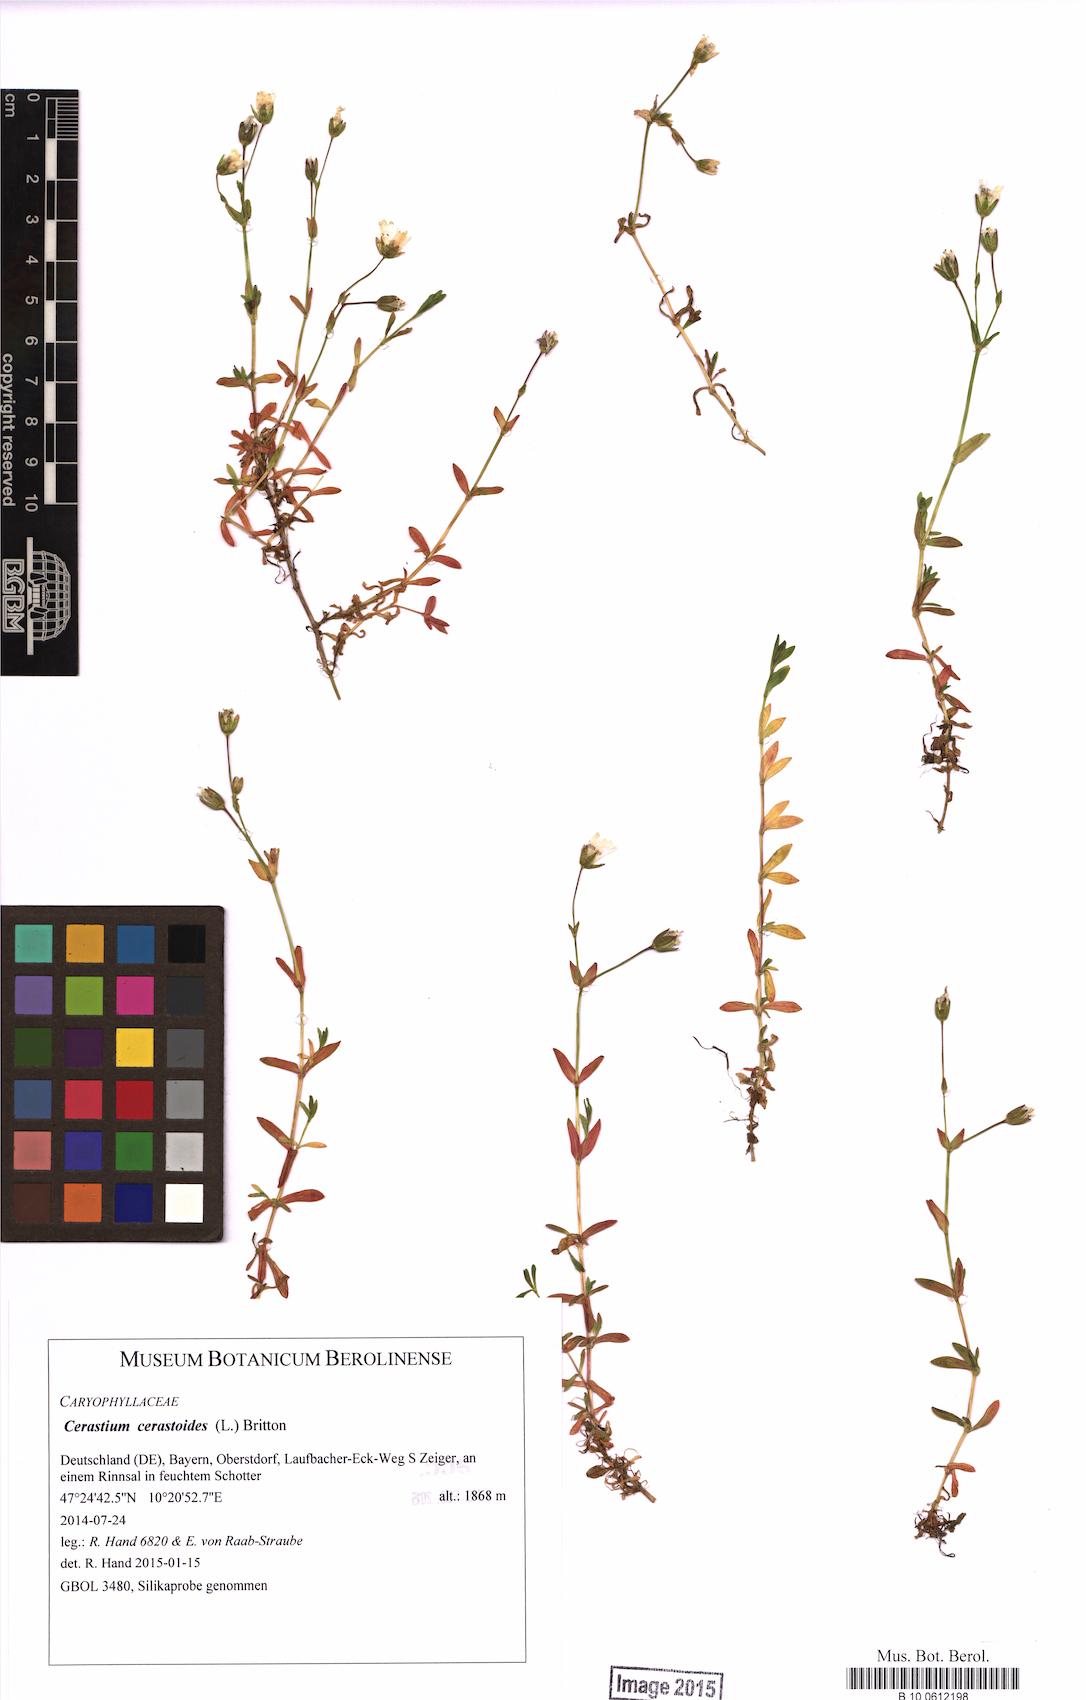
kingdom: Plantae
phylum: Tracheophyta
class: Magnoliopsida
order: Caryophyllales
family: Caryophyllaceae
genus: Dichodon
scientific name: Dichodon cerastoides
